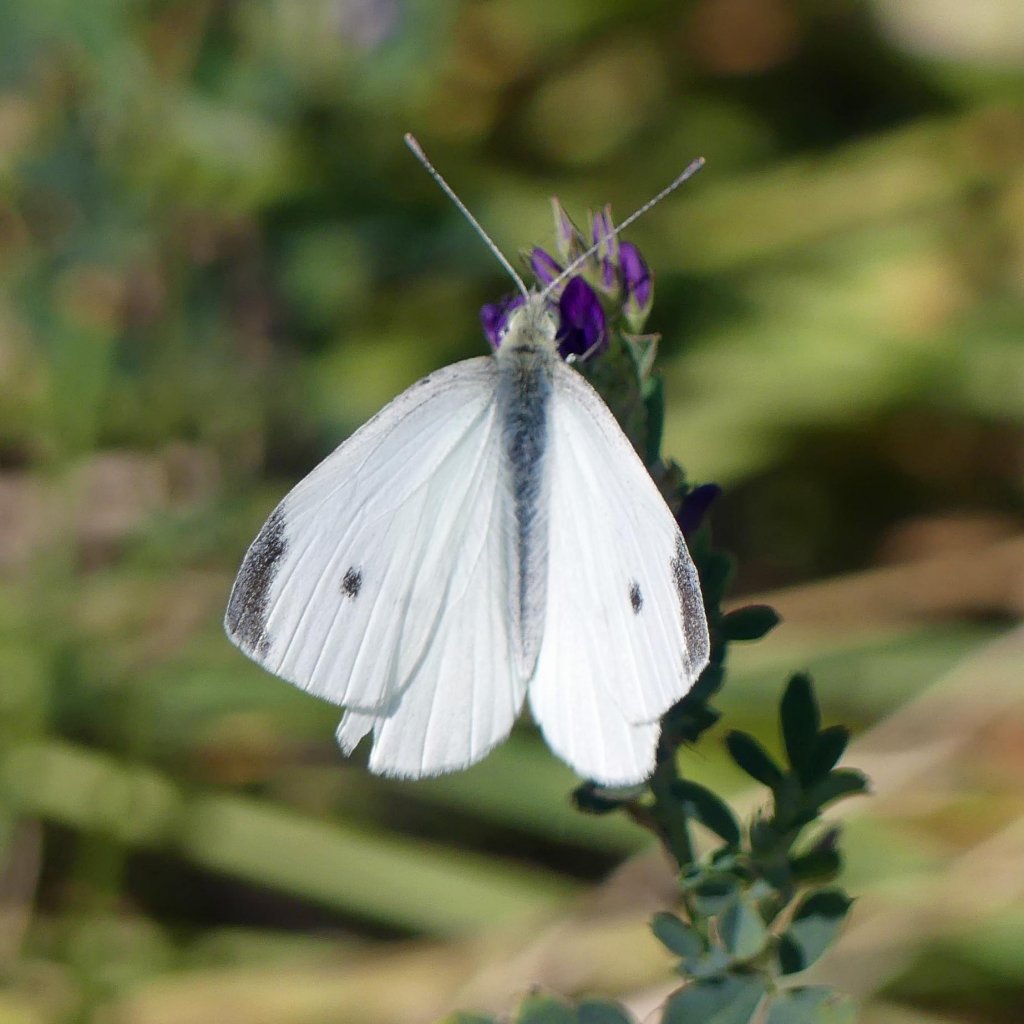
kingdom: Animalia
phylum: Arthropoda
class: Insecta
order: Lepidoptera
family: Pieridae
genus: Pieris
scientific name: Pieris rapae
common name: Cabbage White
